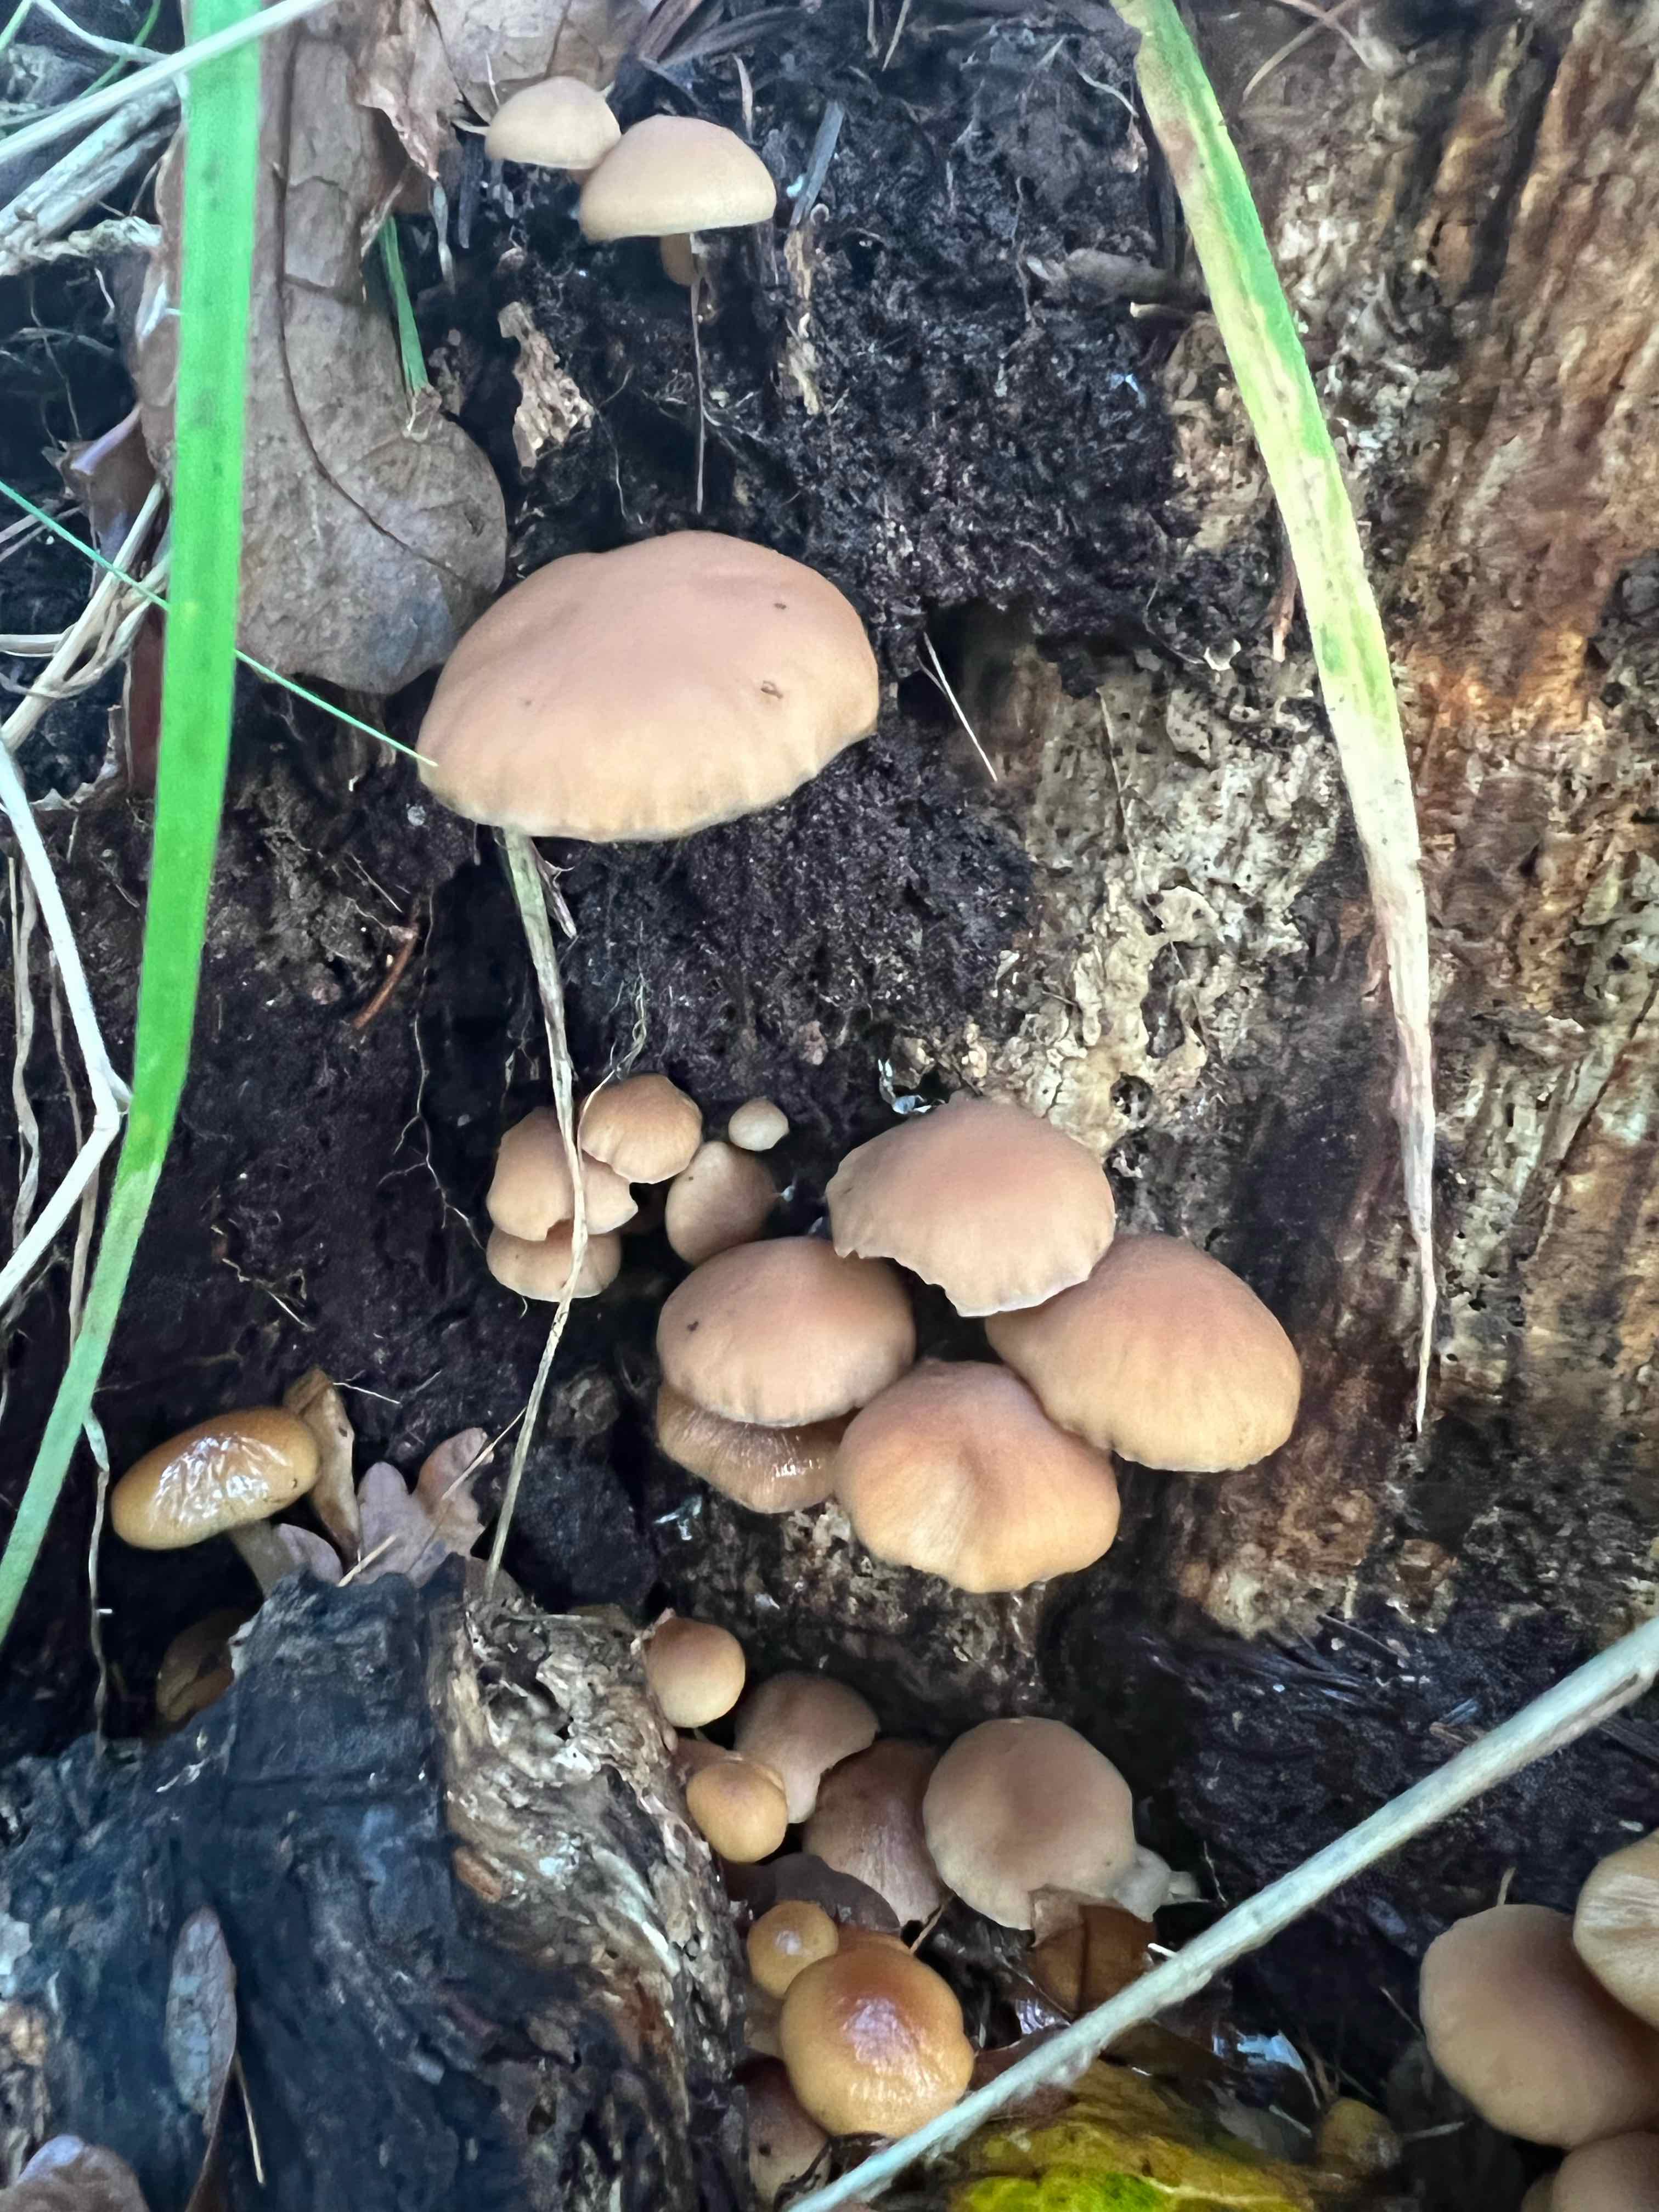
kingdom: Fungi
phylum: Basidiomycota
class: Agaricomycetes
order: Agaricales
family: Psathyrellaceae
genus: Psathyrella
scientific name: Psathyrella piluliformis
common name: lysstokket mørkhat
